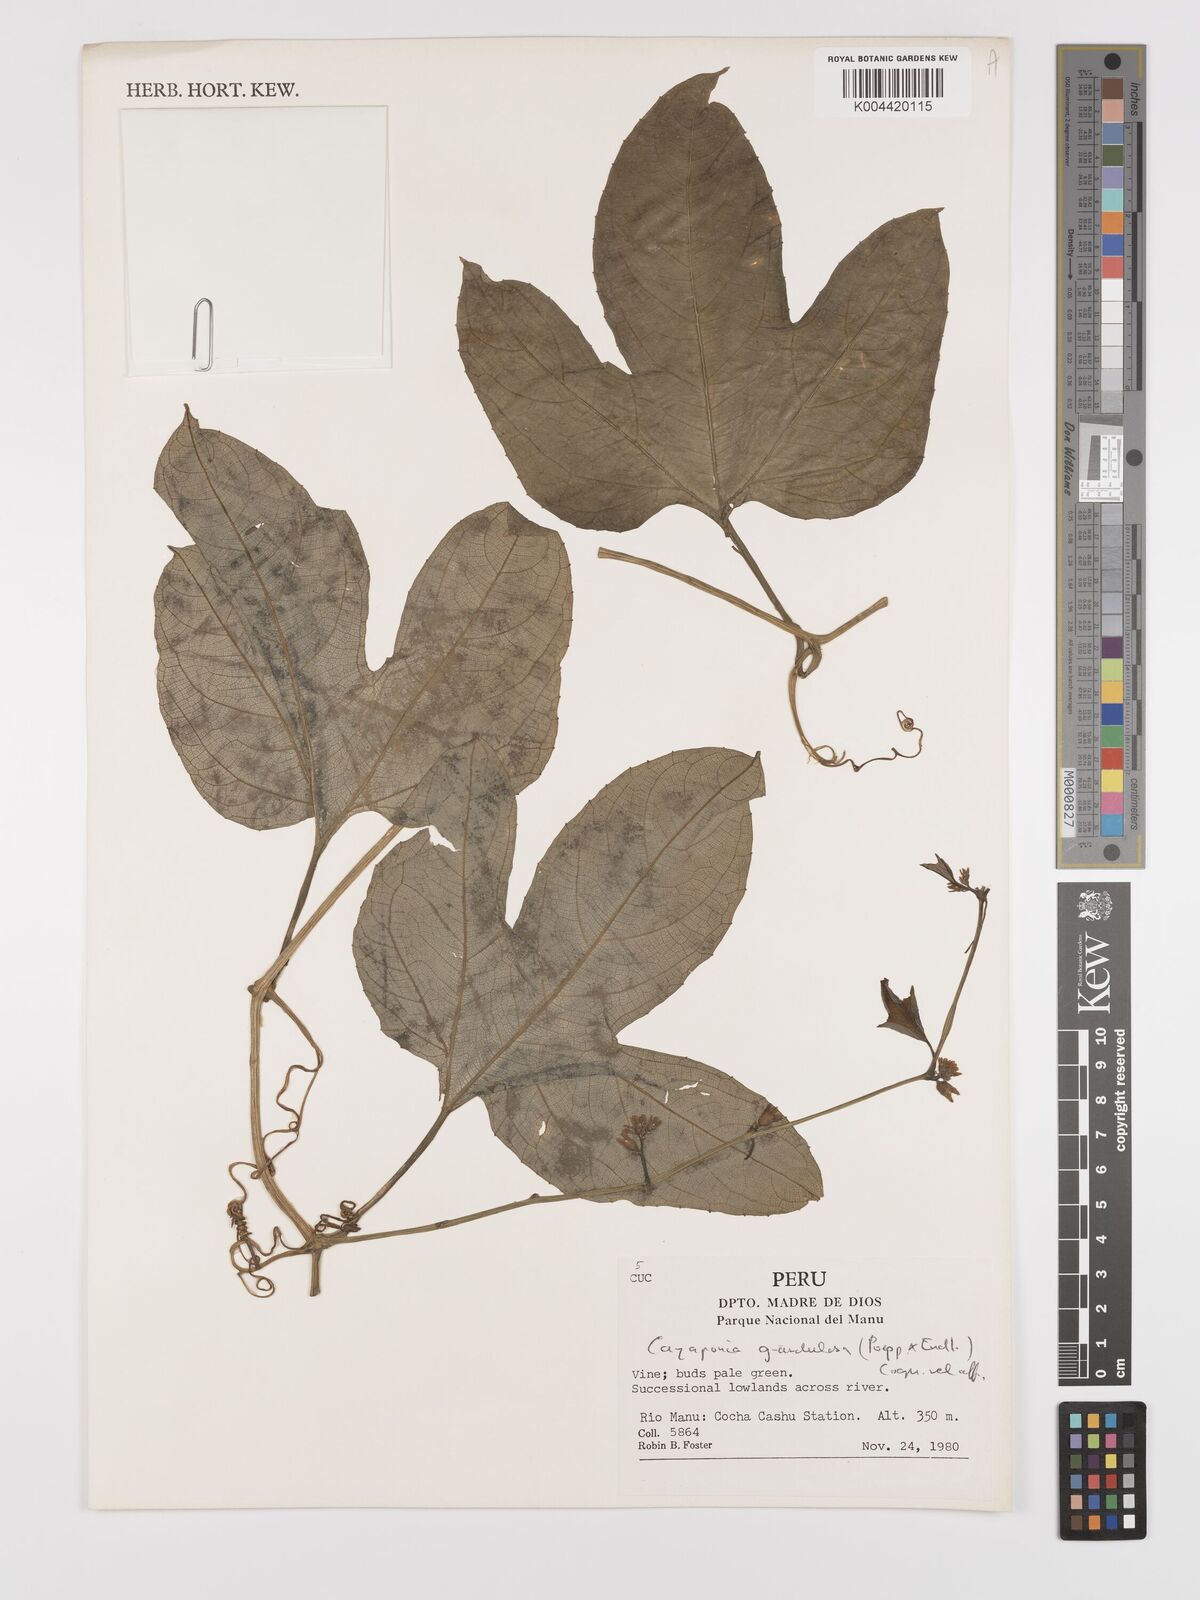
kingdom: Plantae
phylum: Tracheophyta
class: Magnoliopsida
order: Cucurbitales
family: Cucurbitaceae
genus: Cayaponia
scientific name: Cayaponia glandulosa
